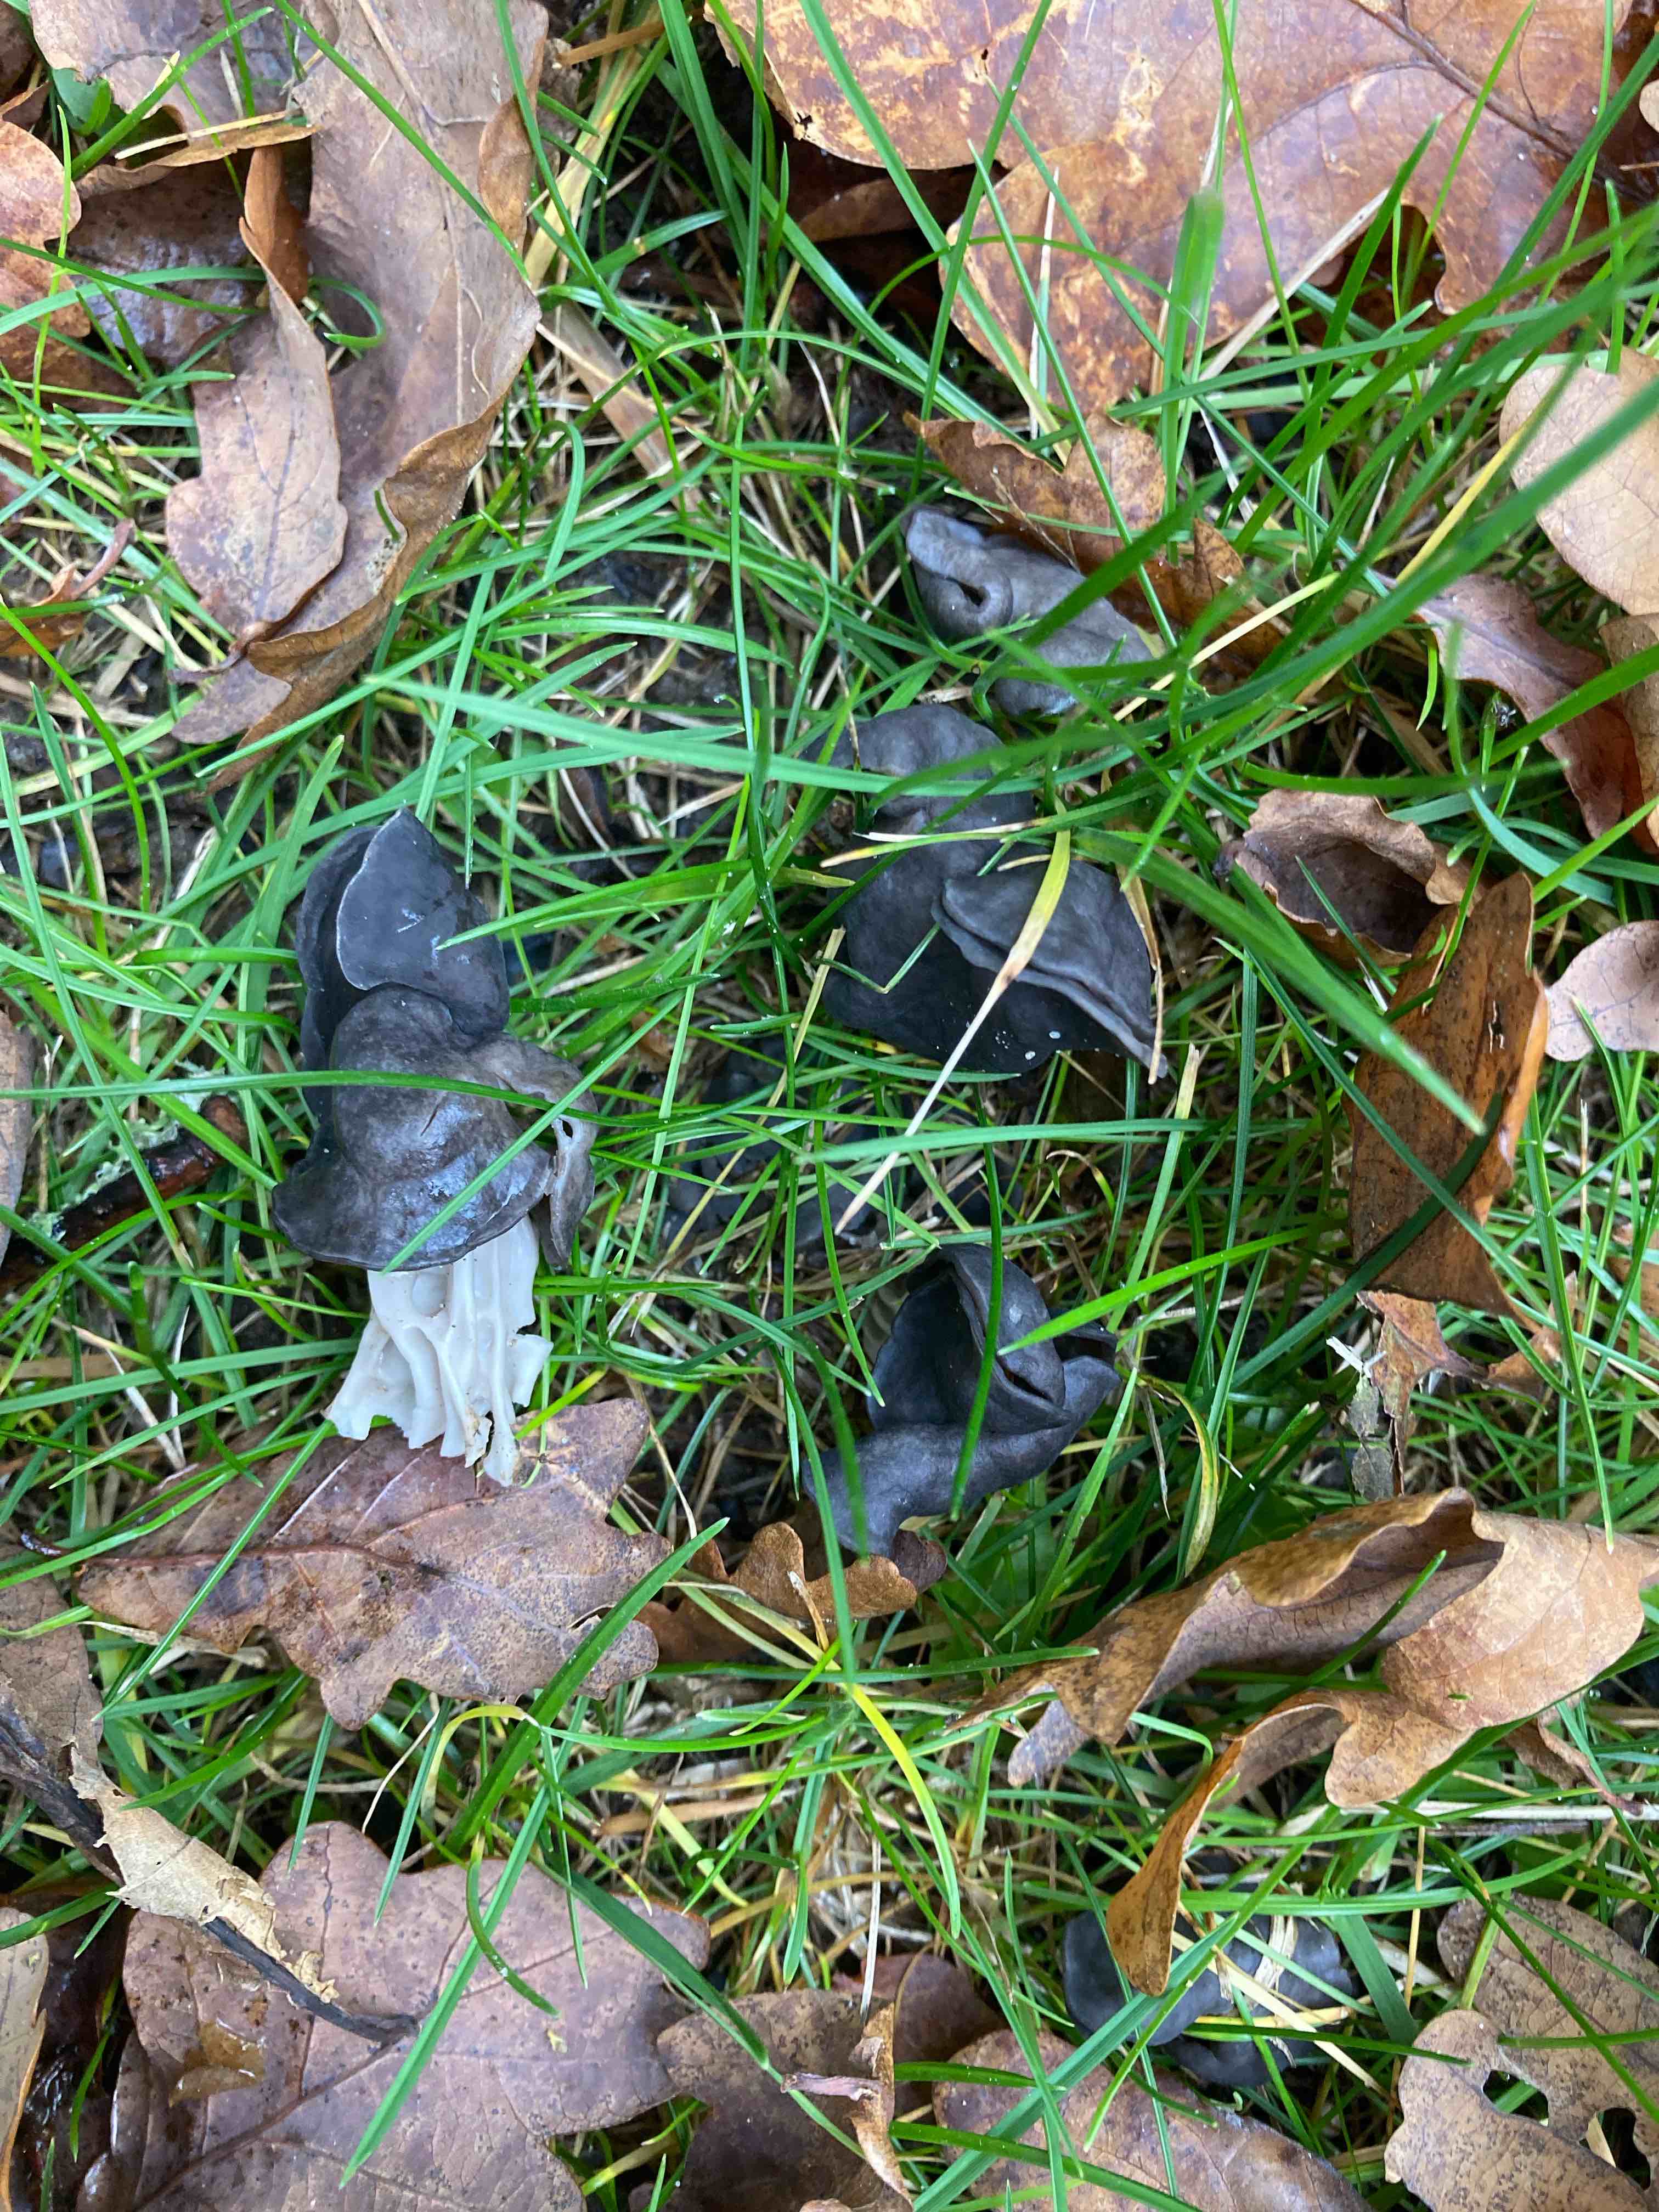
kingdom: Fungi
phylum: Ascomycota
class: Pezizomycetes
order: Pezizales
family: Helvellaceae
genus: Helvella
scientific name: Helvella lacunosa
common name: grubet foldhat
